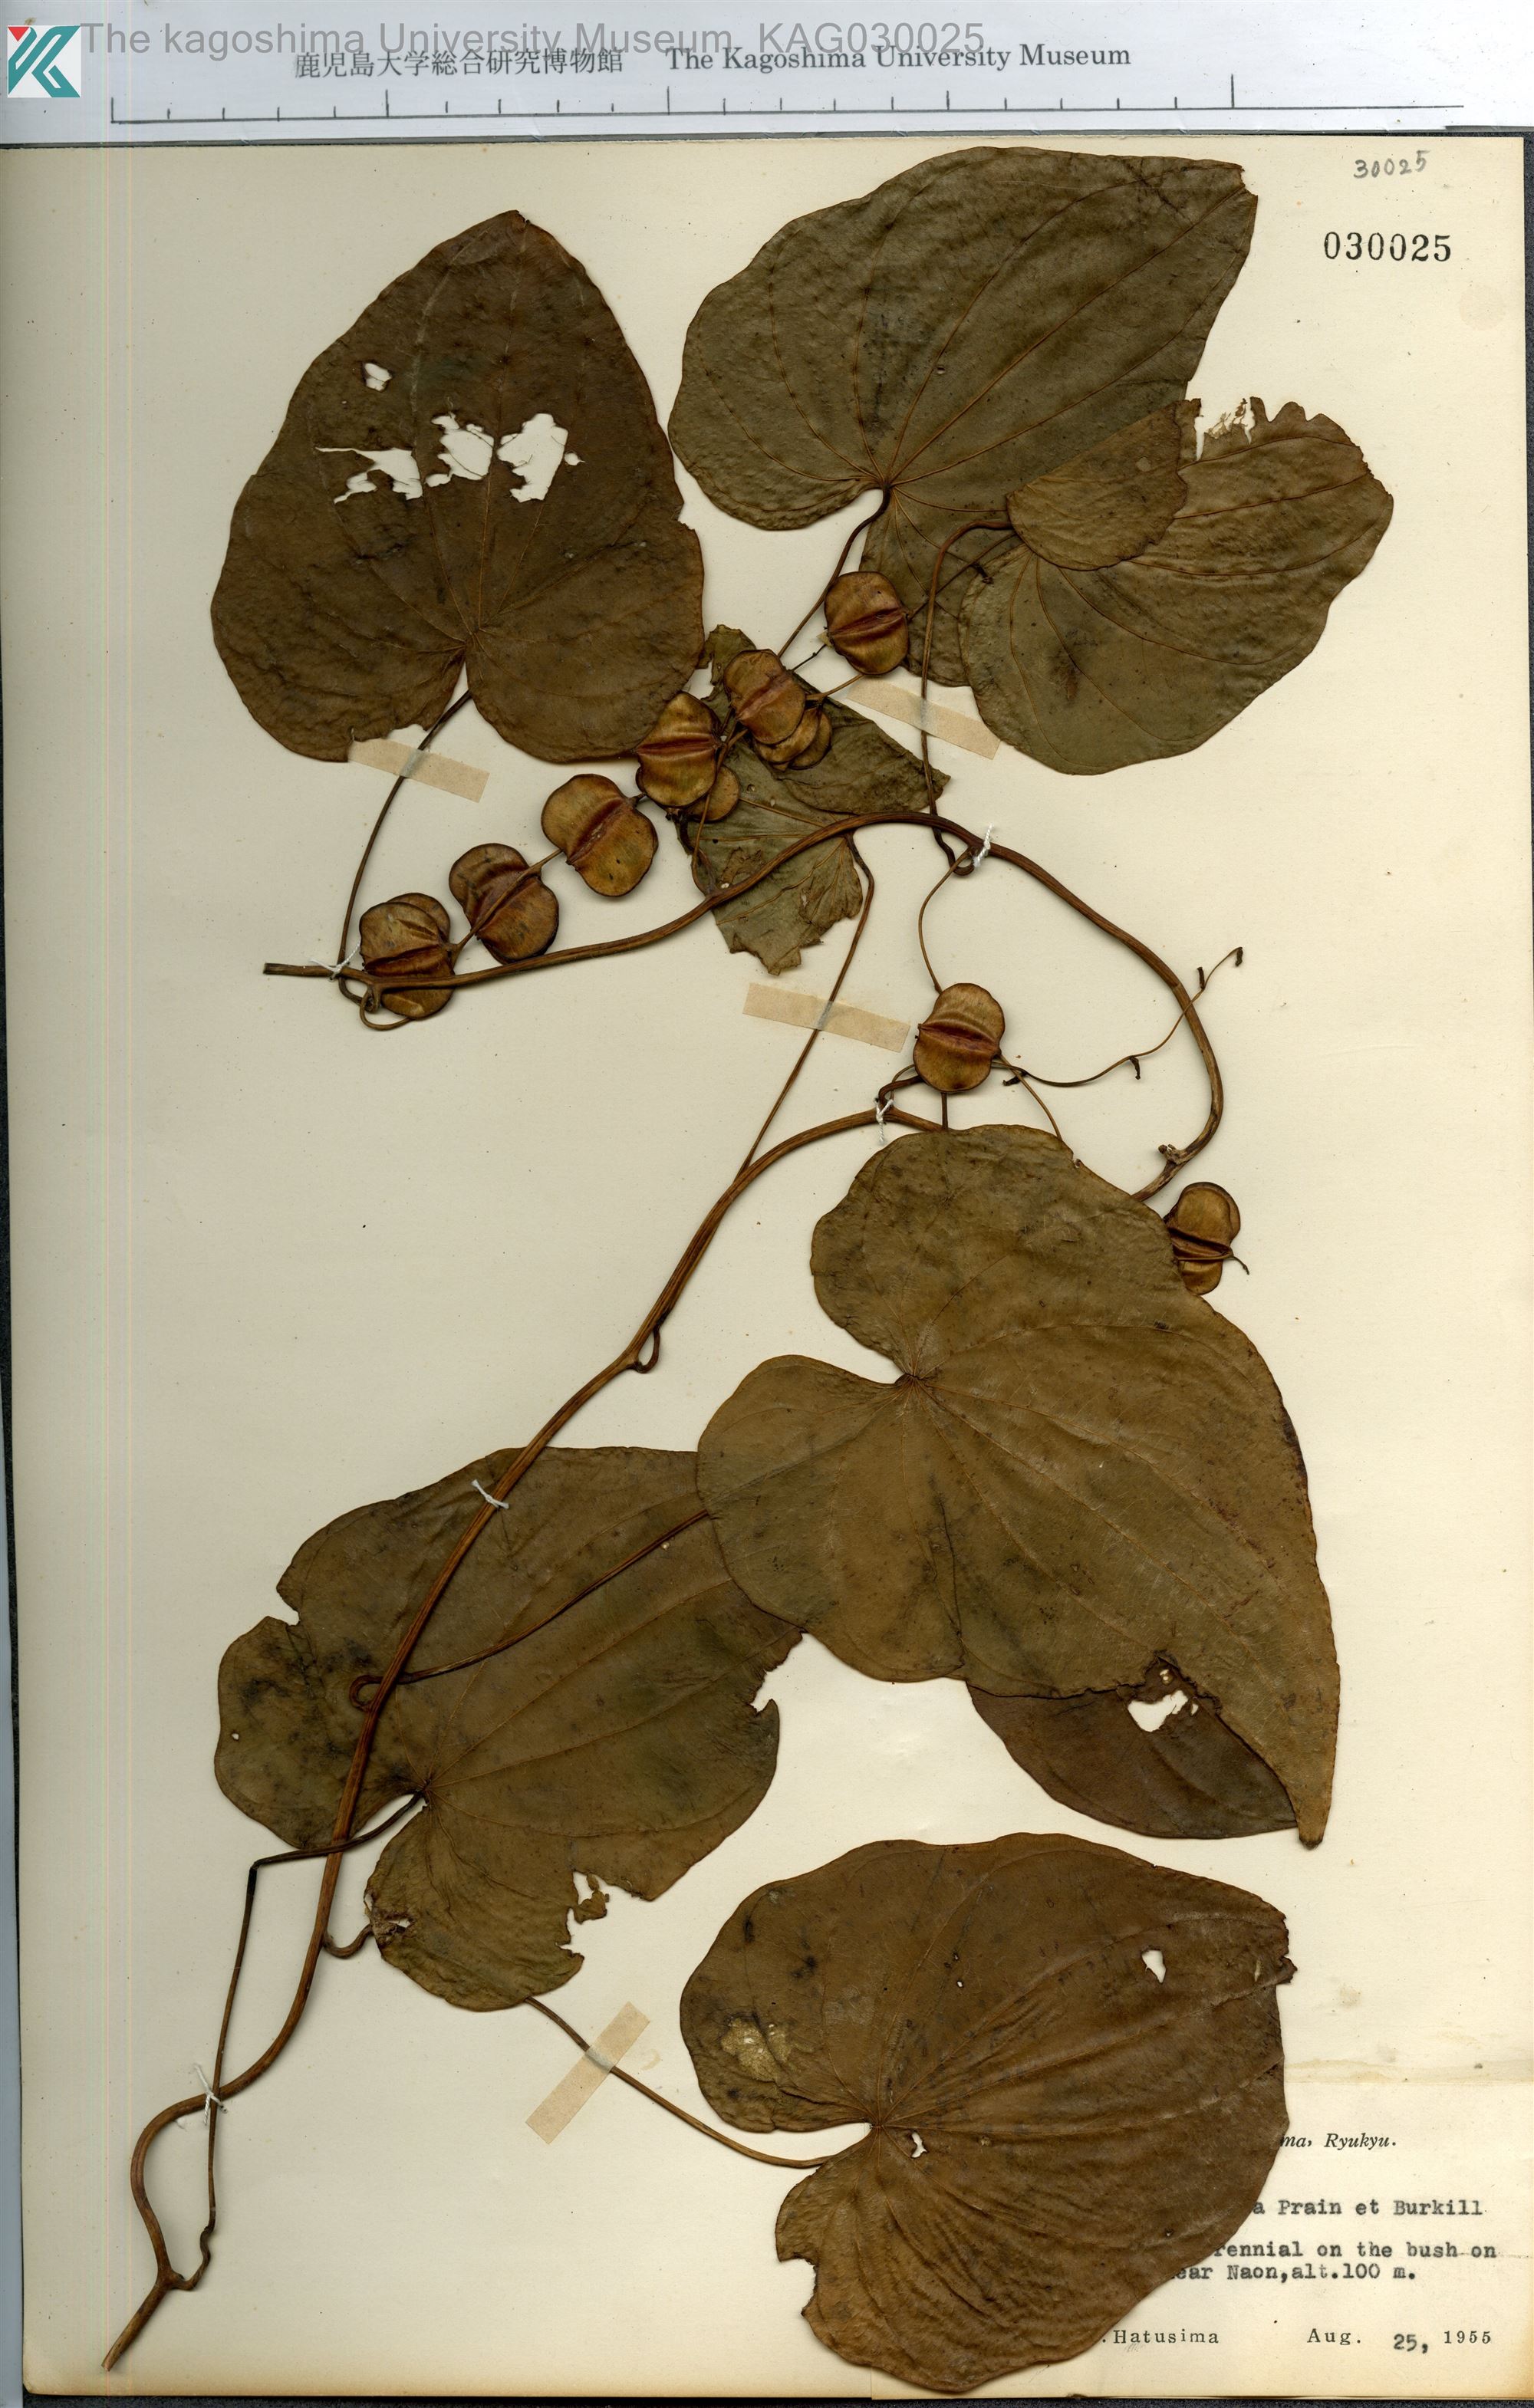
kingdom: Plantae
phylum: Tracheophyta
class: Liliopsida
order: Dioscoreales
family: Dioscoreaceae
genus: Dioscorea
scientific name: Dioscorea zentaroana
